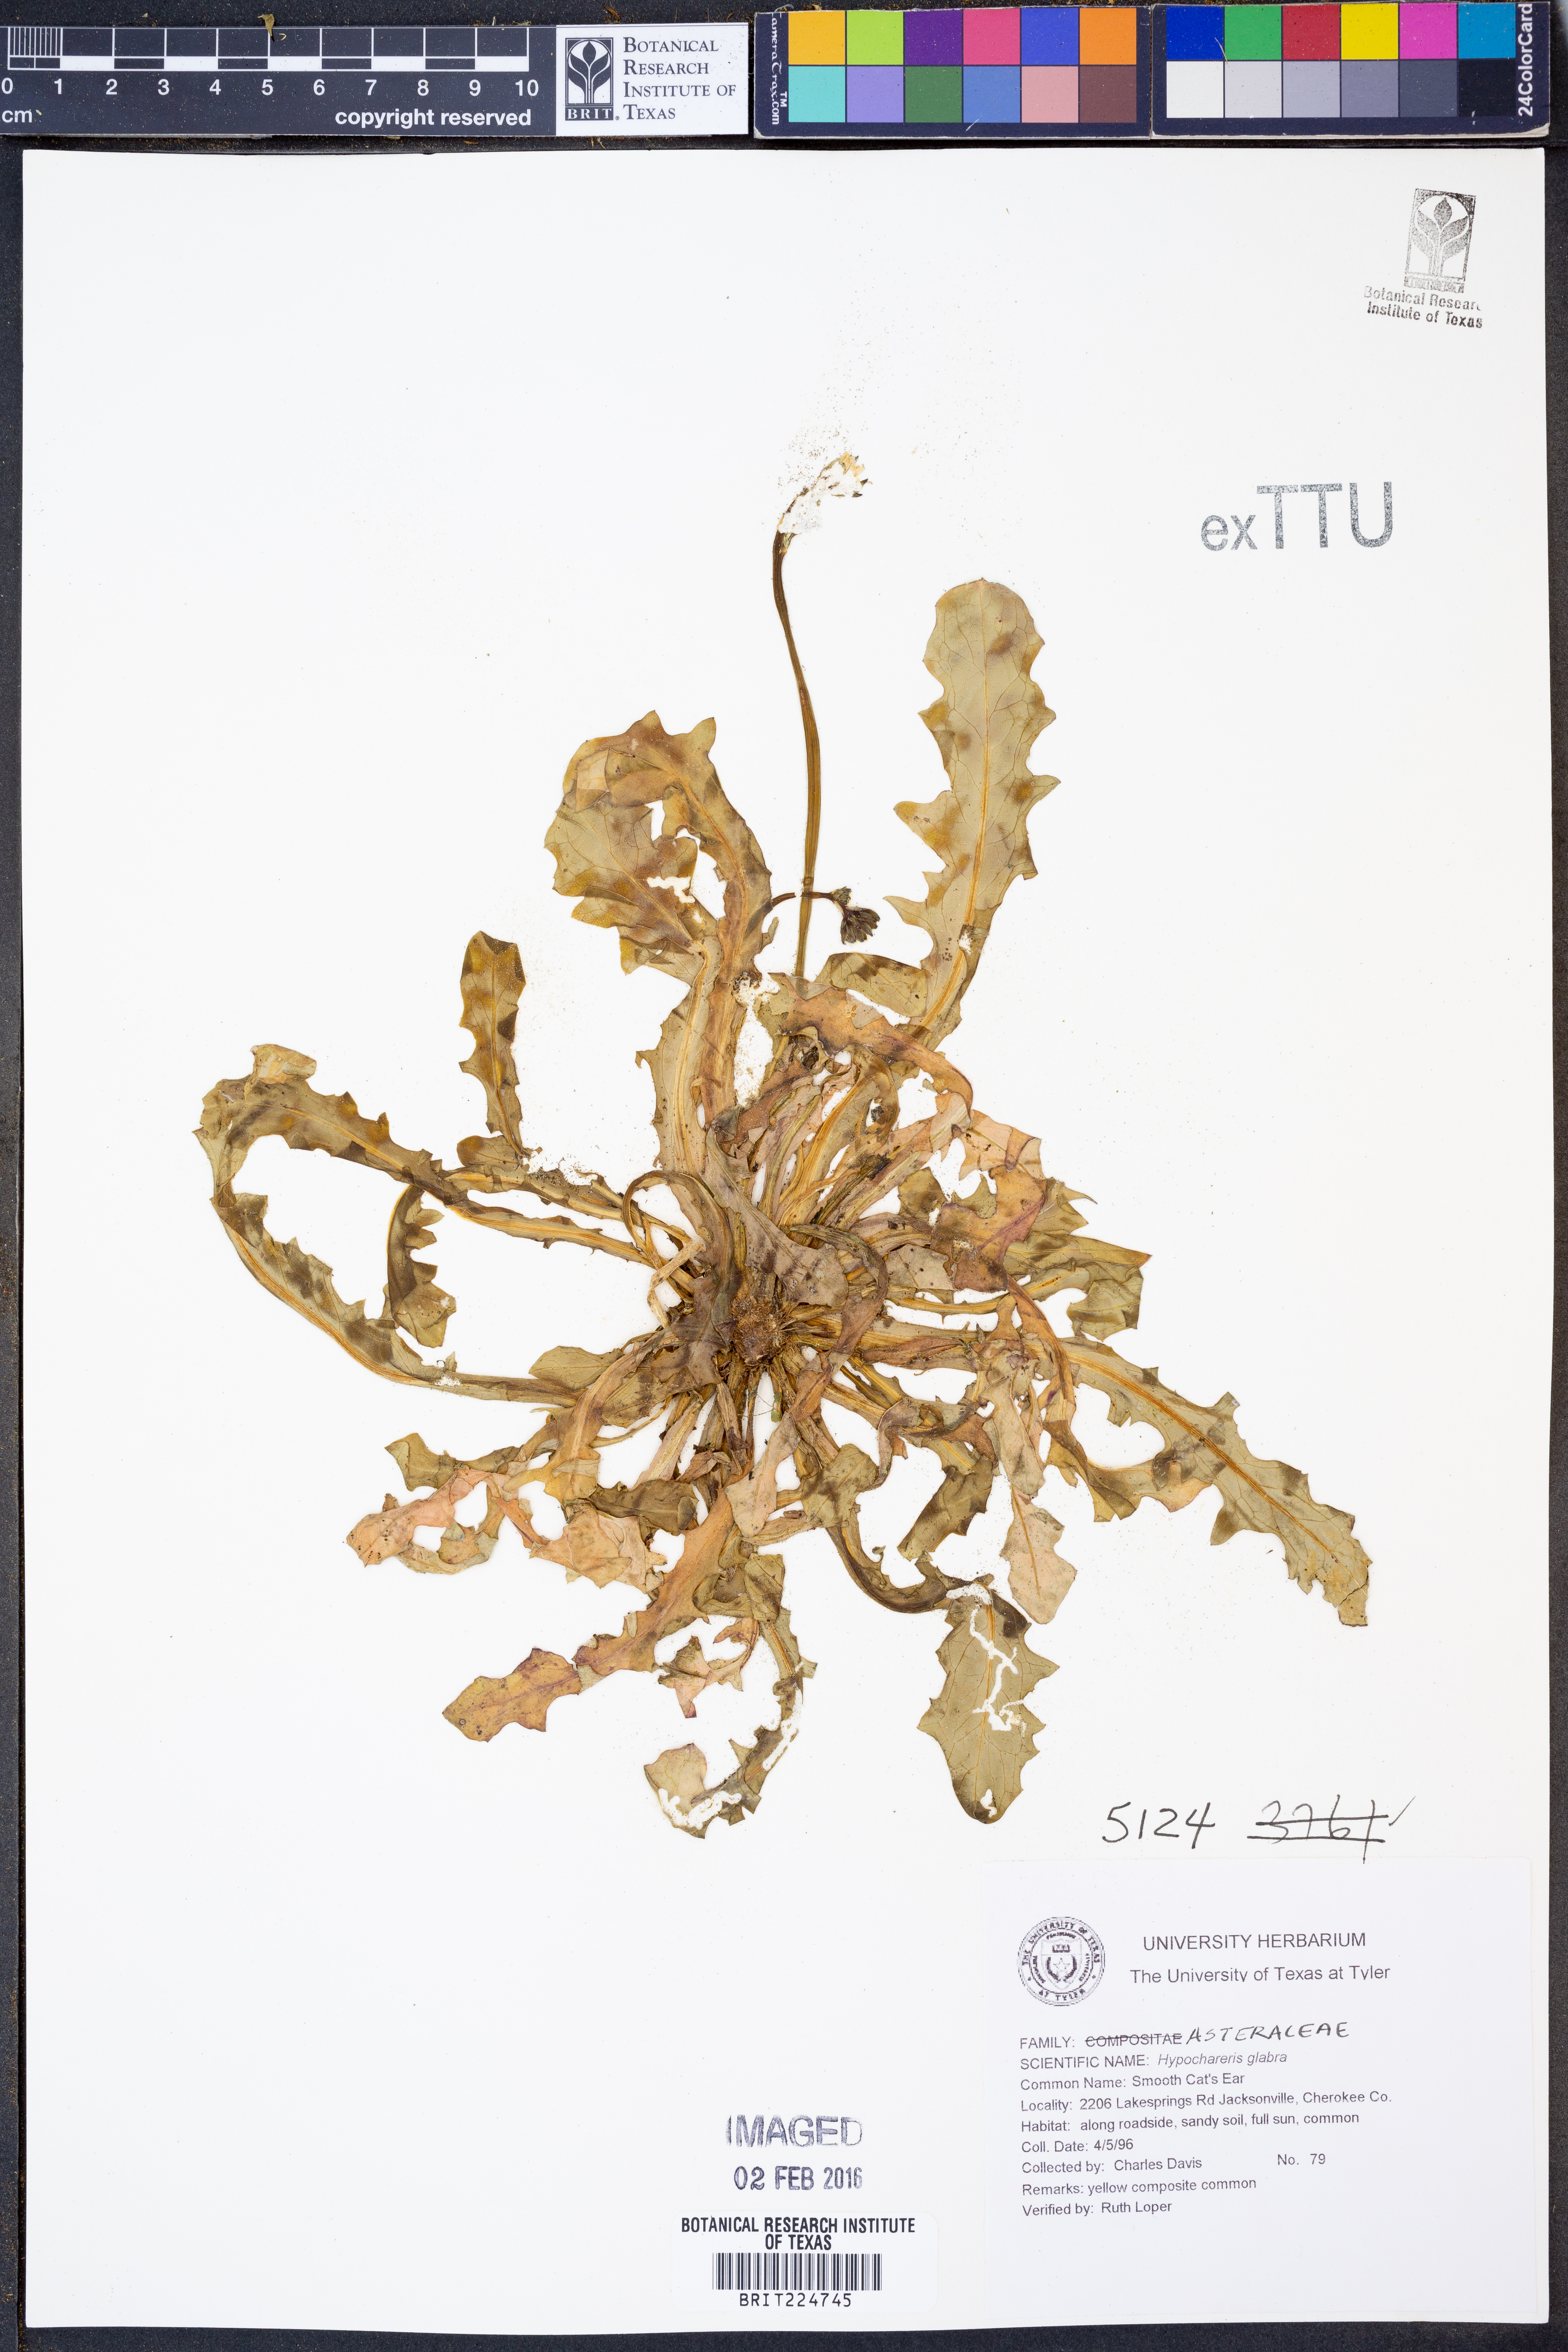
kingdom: Plantae
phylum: Tracheophyta
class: Magnoliopsida
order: Asterales
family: Asteraceae
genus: Hypochaeris
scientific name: Hypochaeris glabra
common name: Smooth catsear
